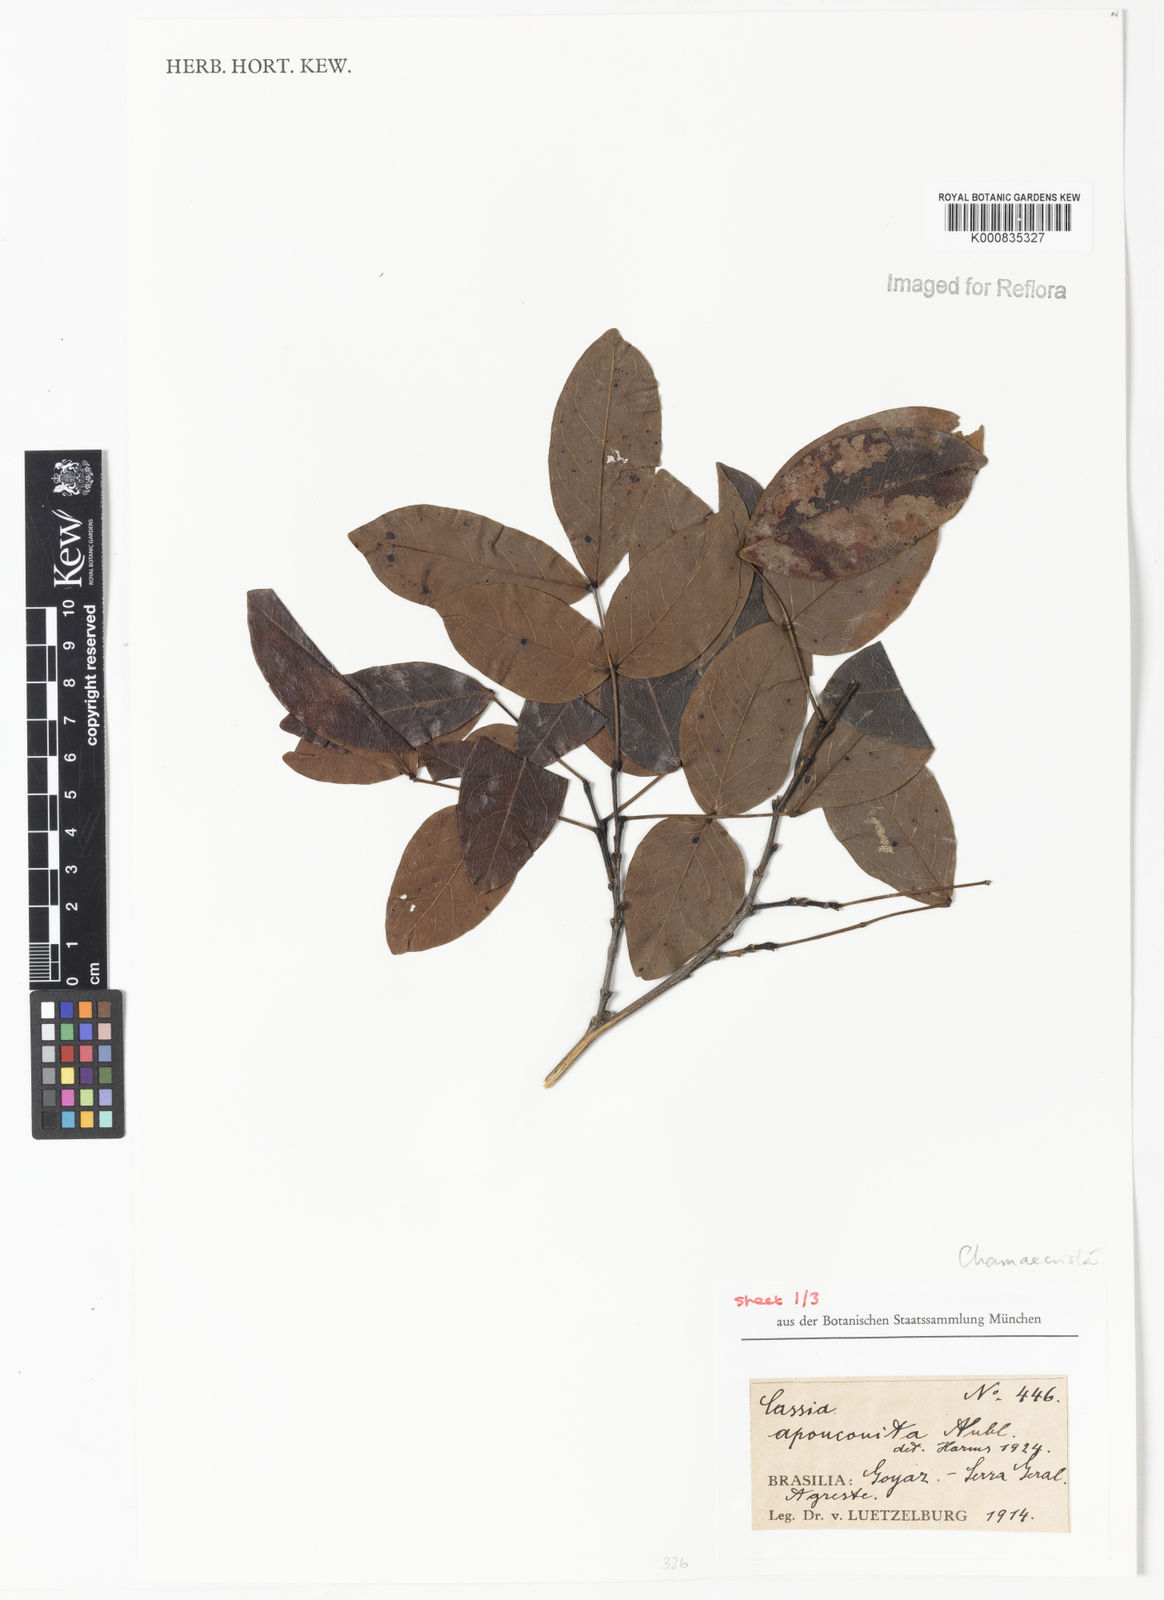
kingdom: Plantae
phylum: Tracheophyta
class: Magnoliopsida
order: Fabales
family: Fabaceae
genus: Chamaecrista
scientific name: Chamaecrista apoucouita
